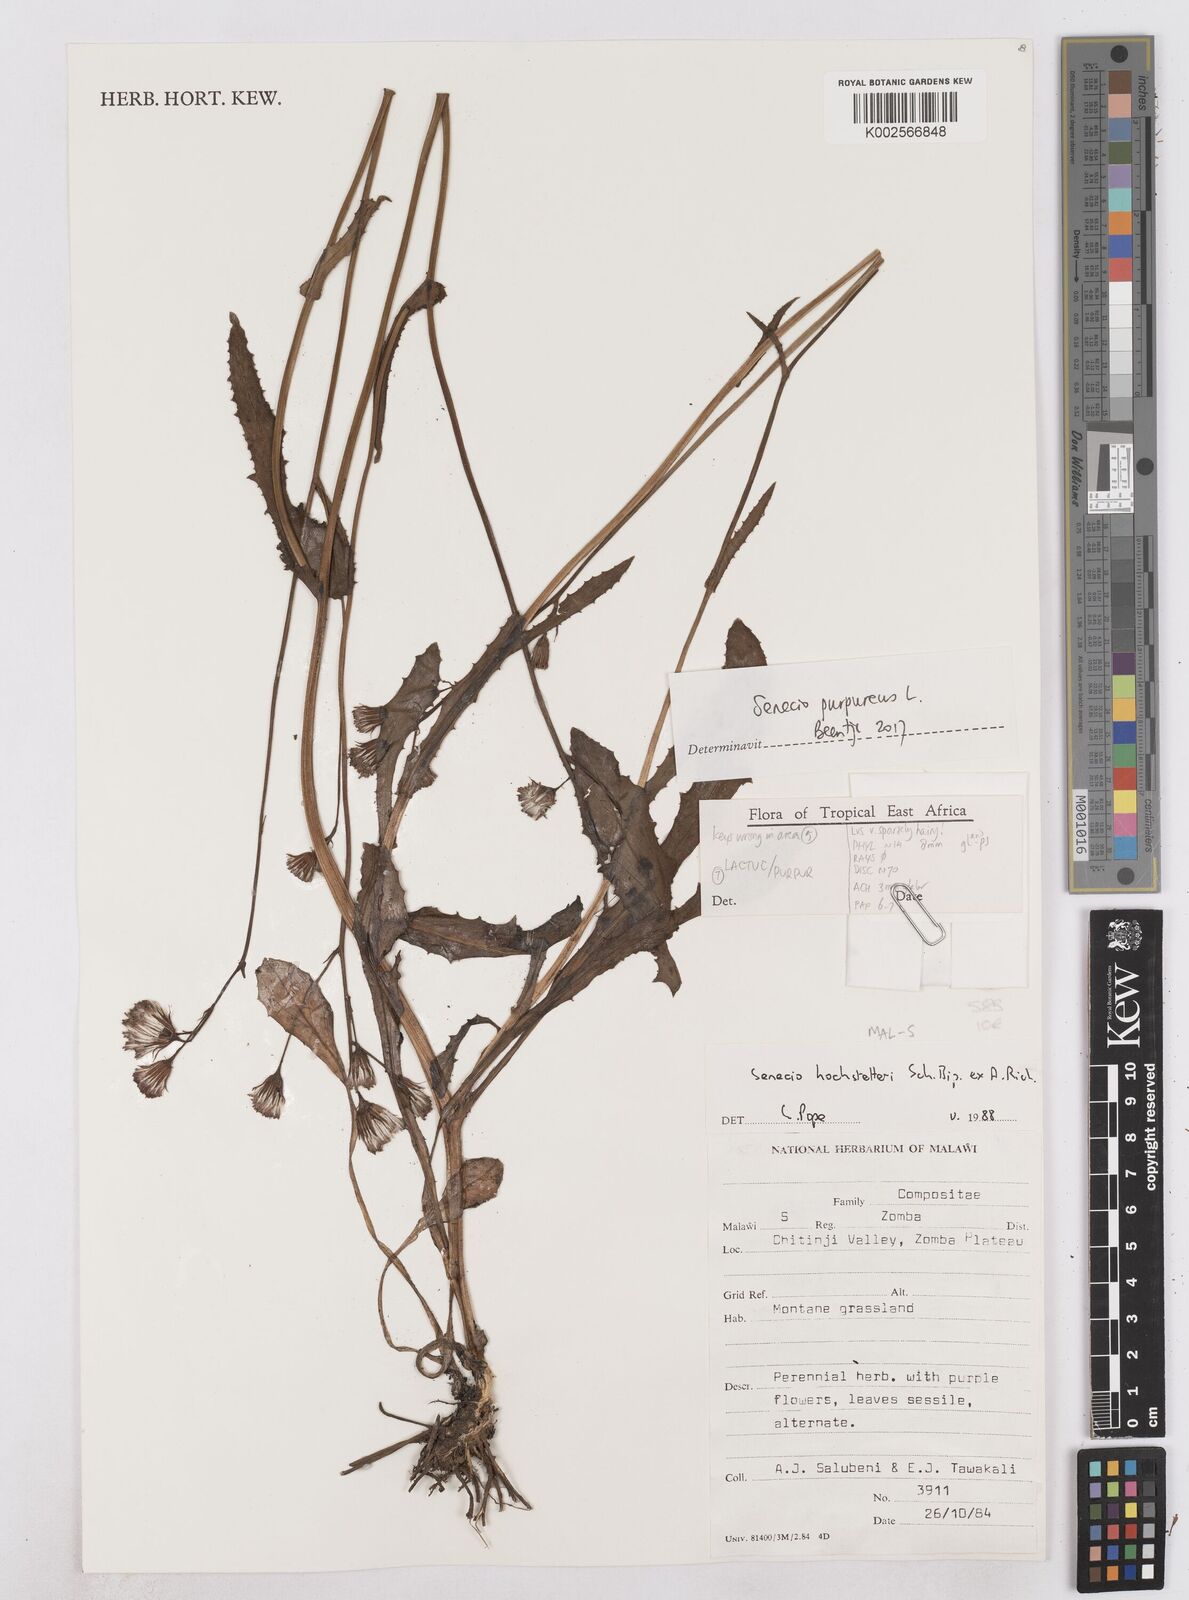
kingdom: Plantae
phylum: Tracheophyta
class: Magnoliopsida
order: Asterales
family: Asteraceae
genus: Senecio
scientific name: Senecio purpureus
